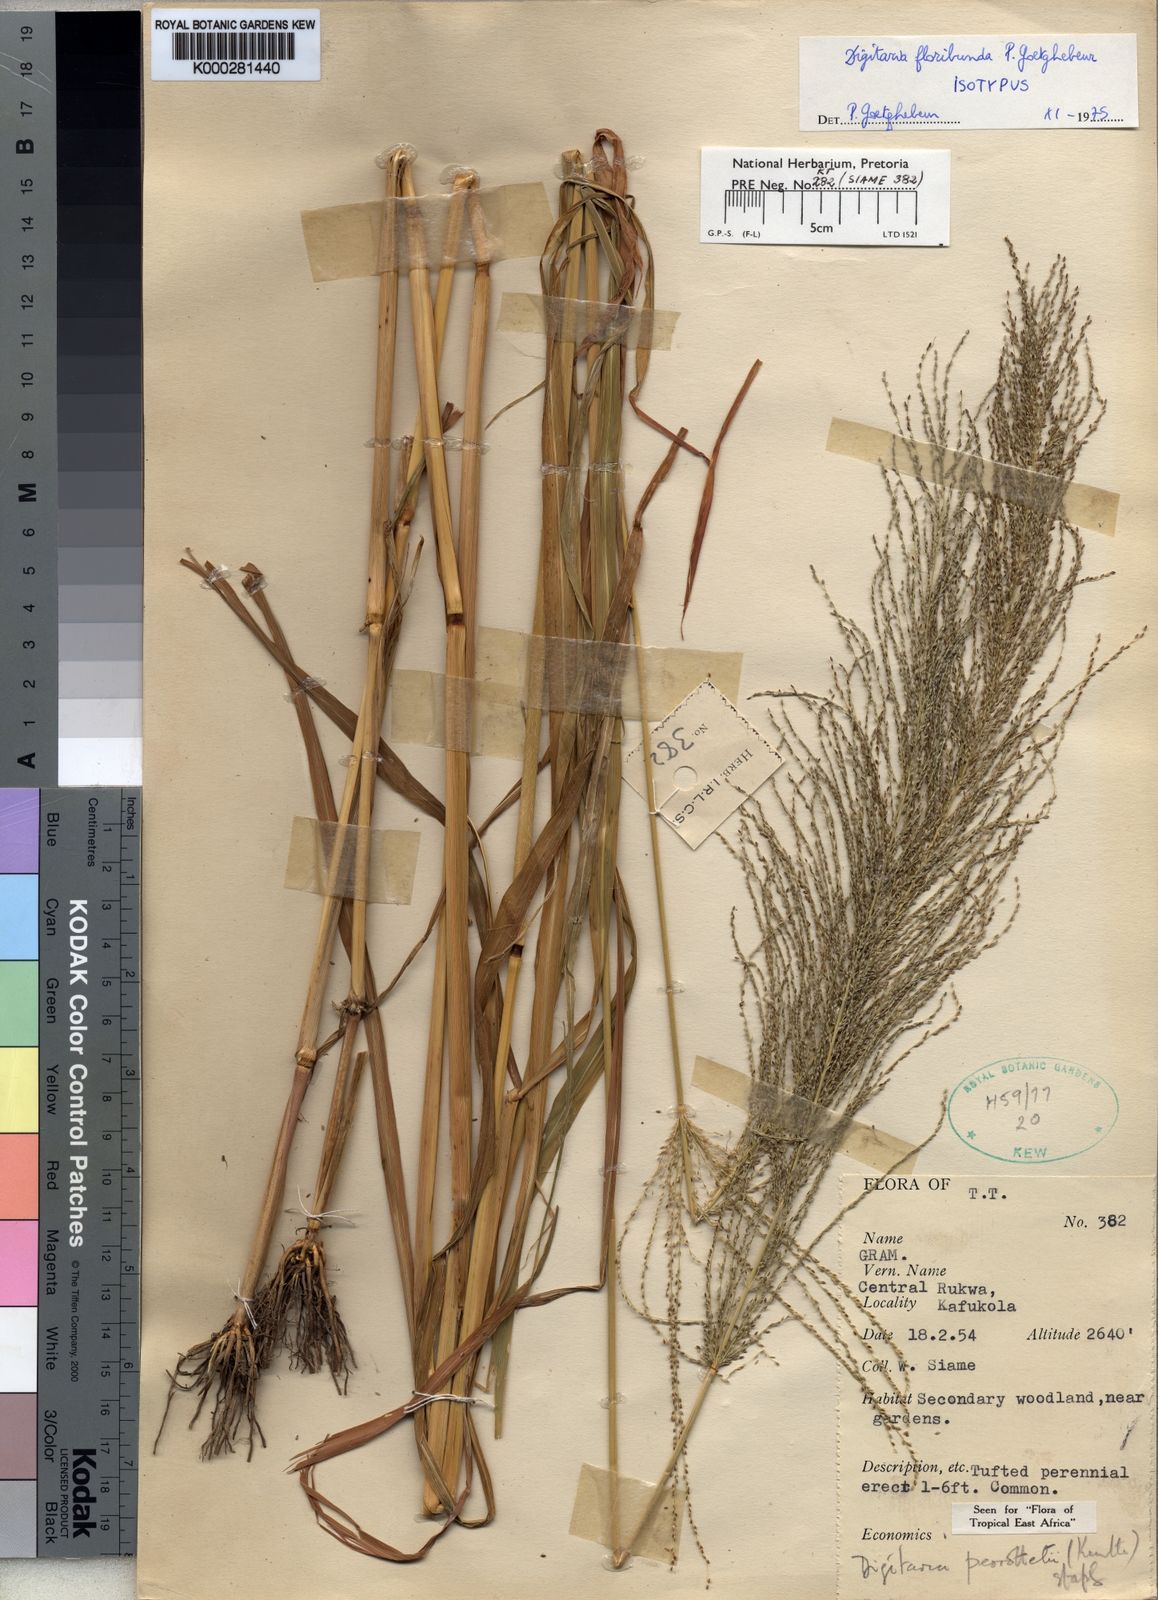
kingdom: Plantae
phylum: Tracheophyta
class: Liliopsida
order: Poales
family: Poaceae
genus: Digitaria
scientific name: Digitaria perrottetii
